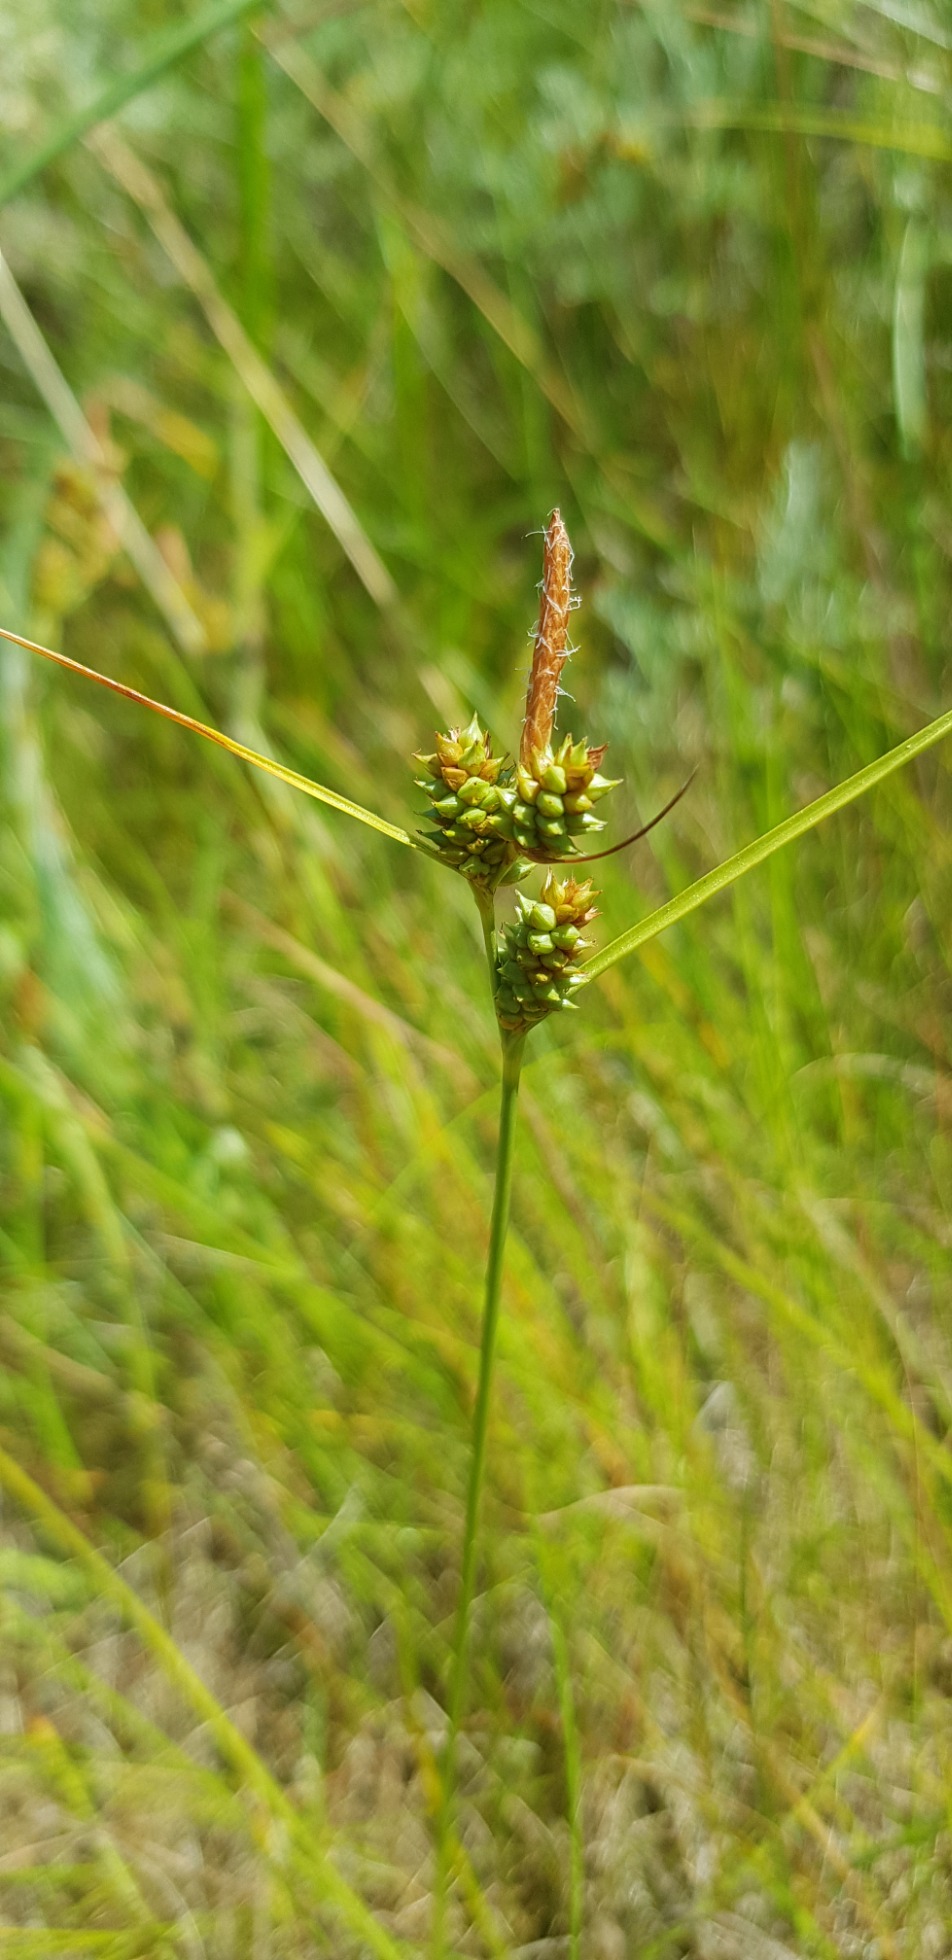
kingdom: Plantae
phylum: Tracheophyta
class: Liliopsida
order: Poales
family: Cyperaceae
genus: Carex
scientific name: Carex extensa
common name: Udspilet star
